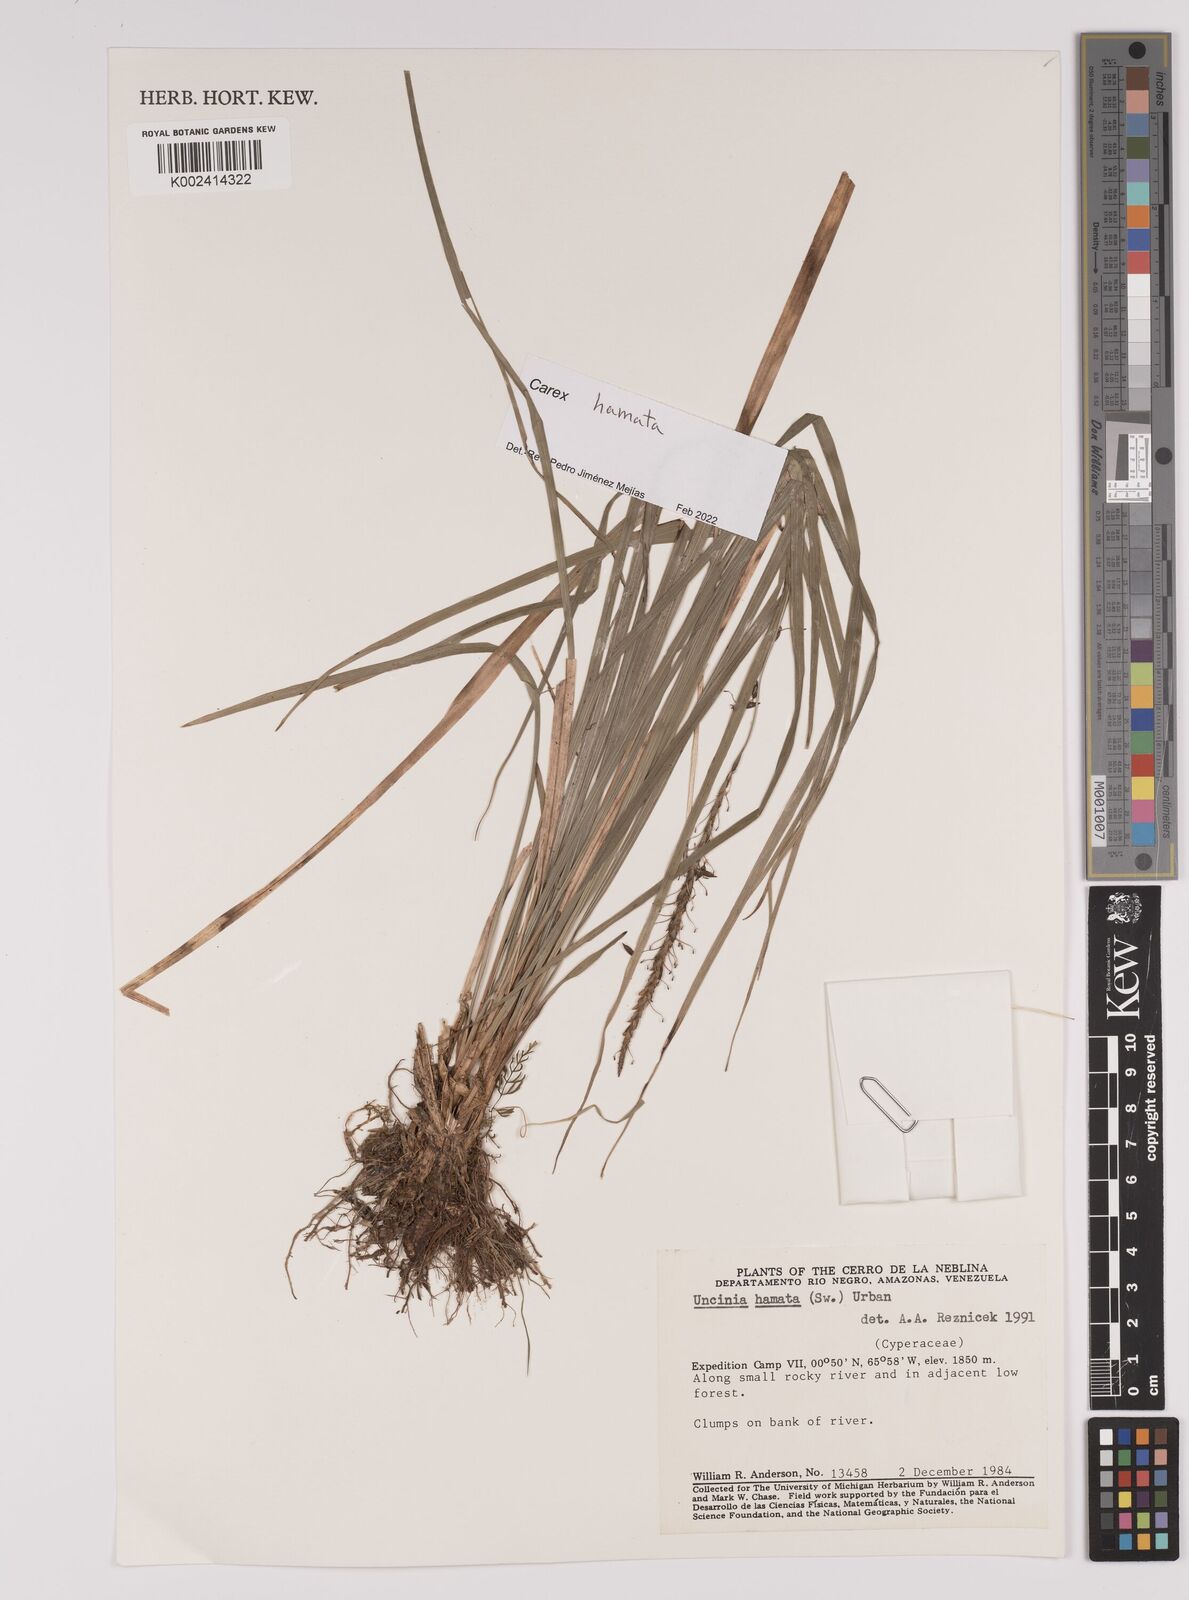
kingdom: Plantae
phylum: Tracheophyta
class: Liliopsida
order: Poales
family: Cyperaceae
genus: Carex
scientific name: Carex hamata
